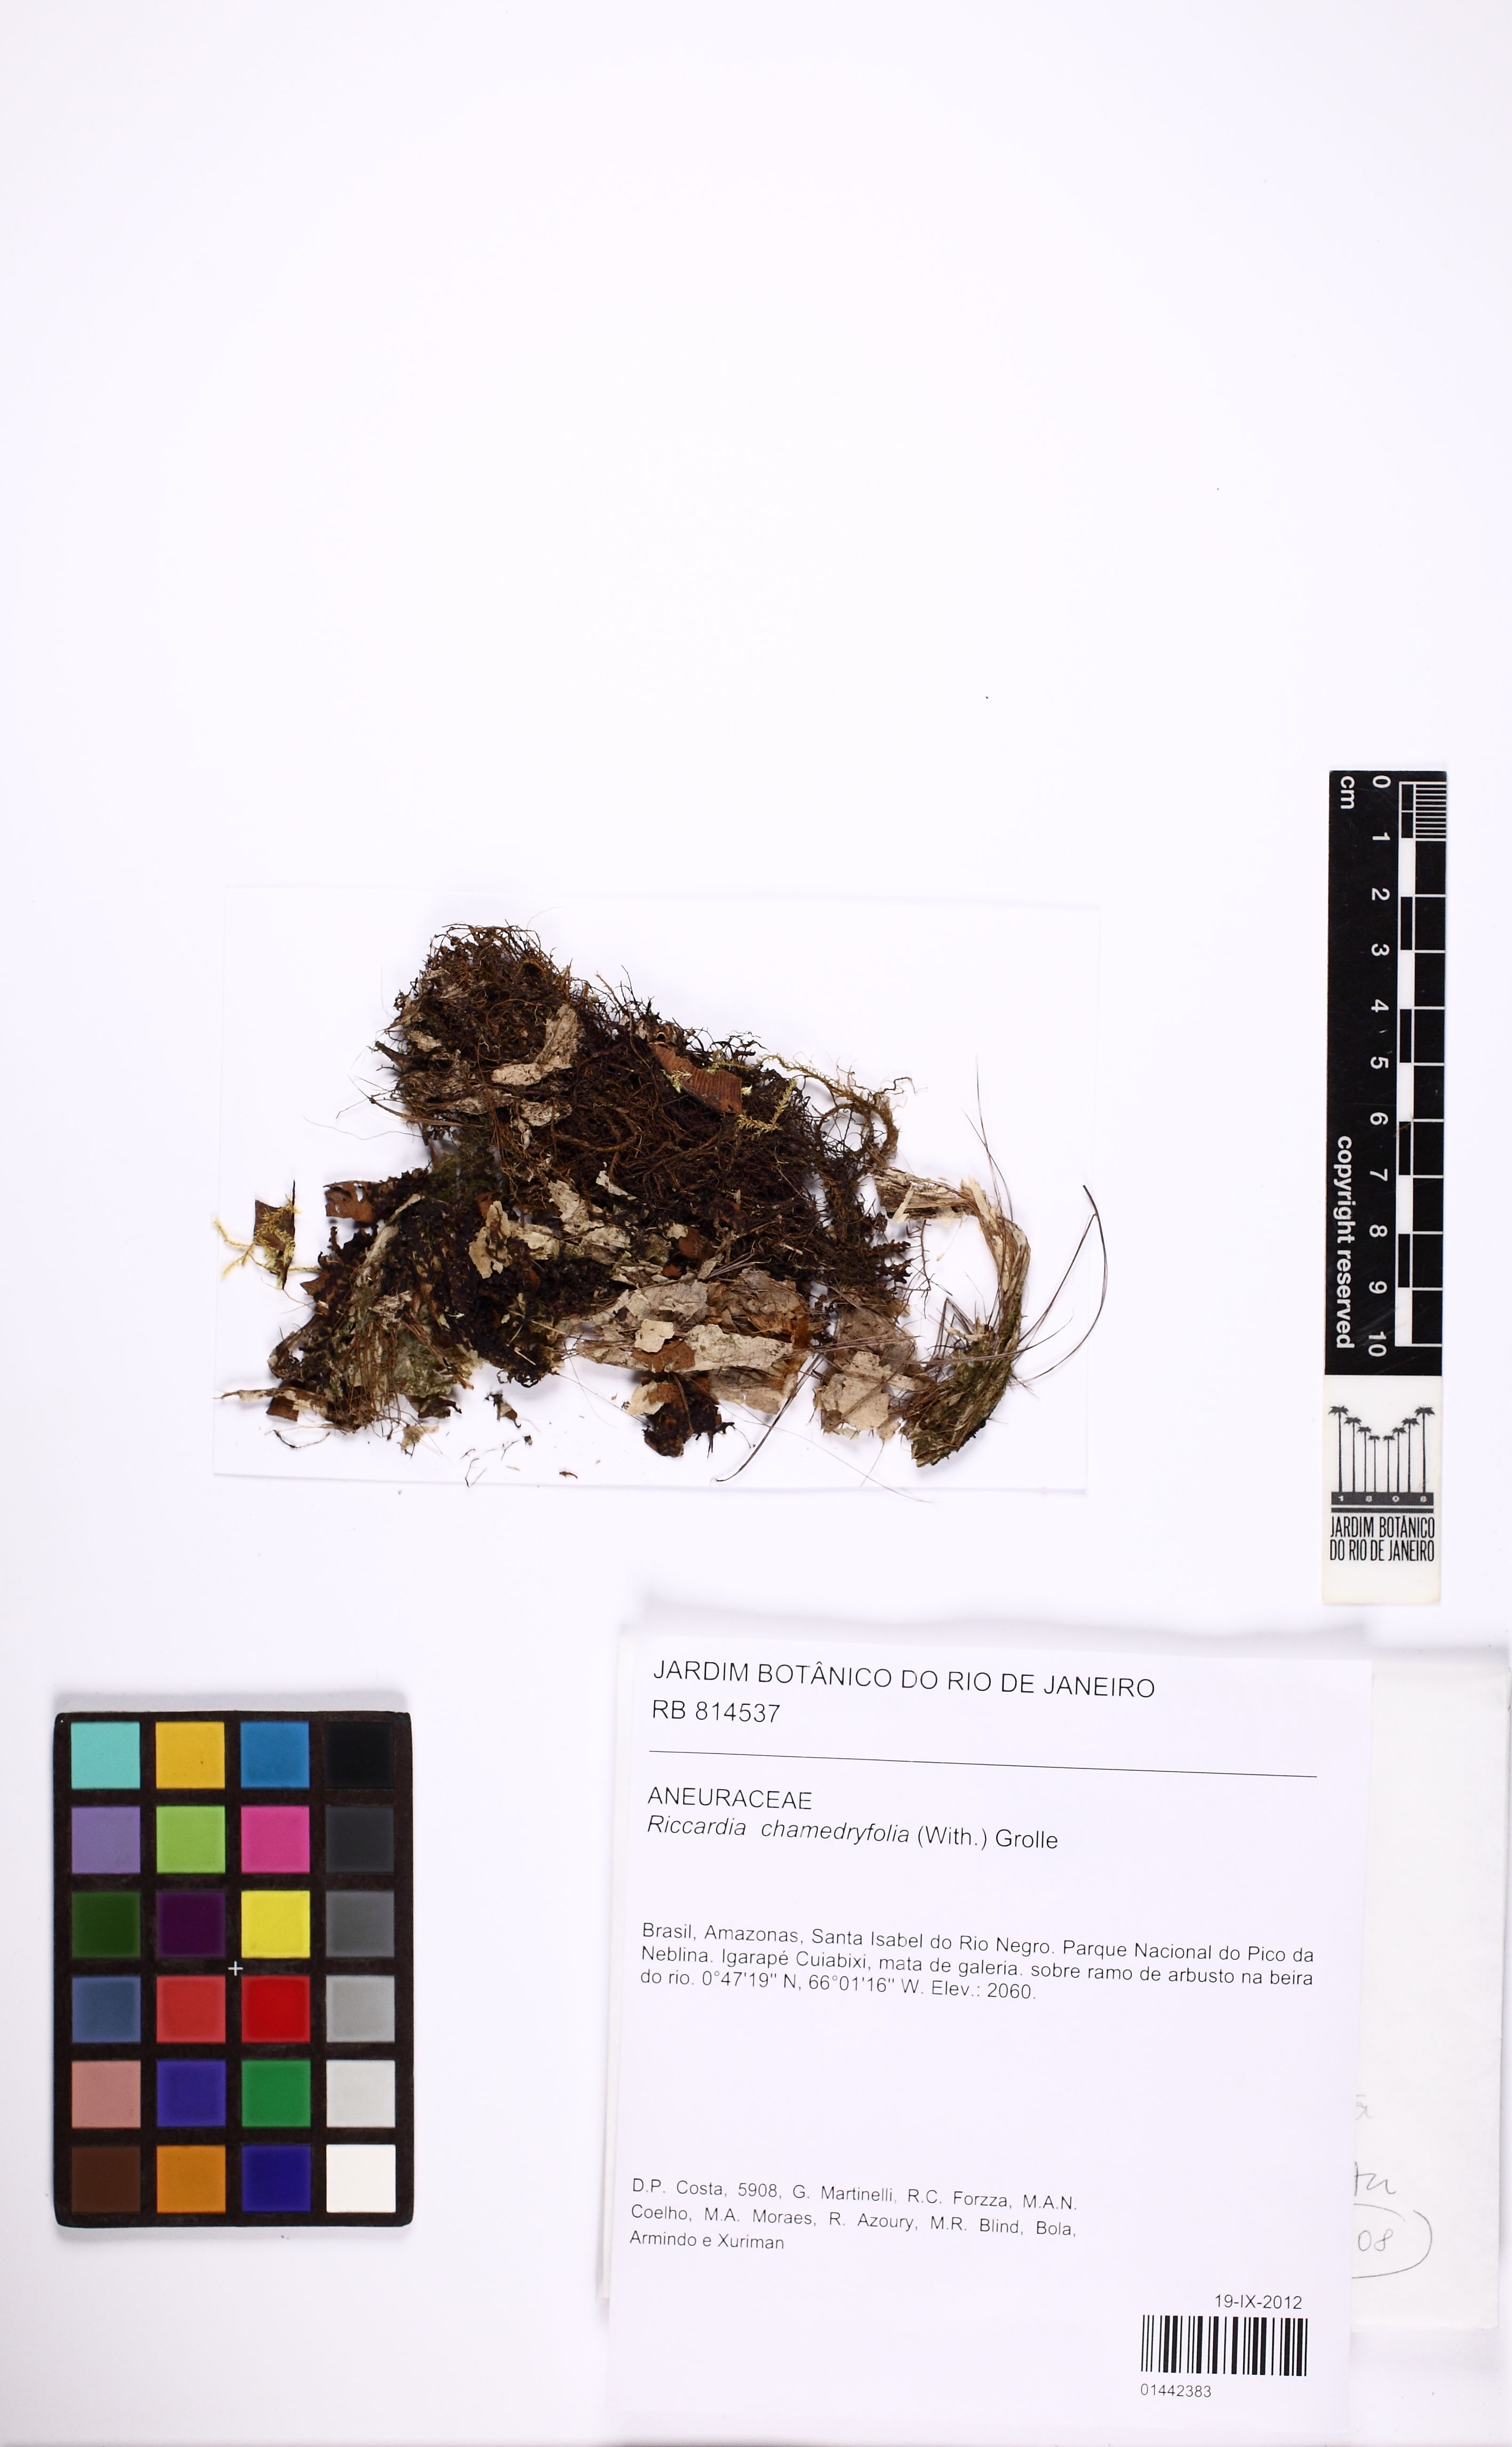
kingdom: Plantae
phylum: Marchantiophyta
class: Jungermanniopsida
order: Metzgeriales
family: Aneuraceae
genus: Riccardia
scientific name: Riccardia chamedryfolia
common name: Jagged germanderwort
